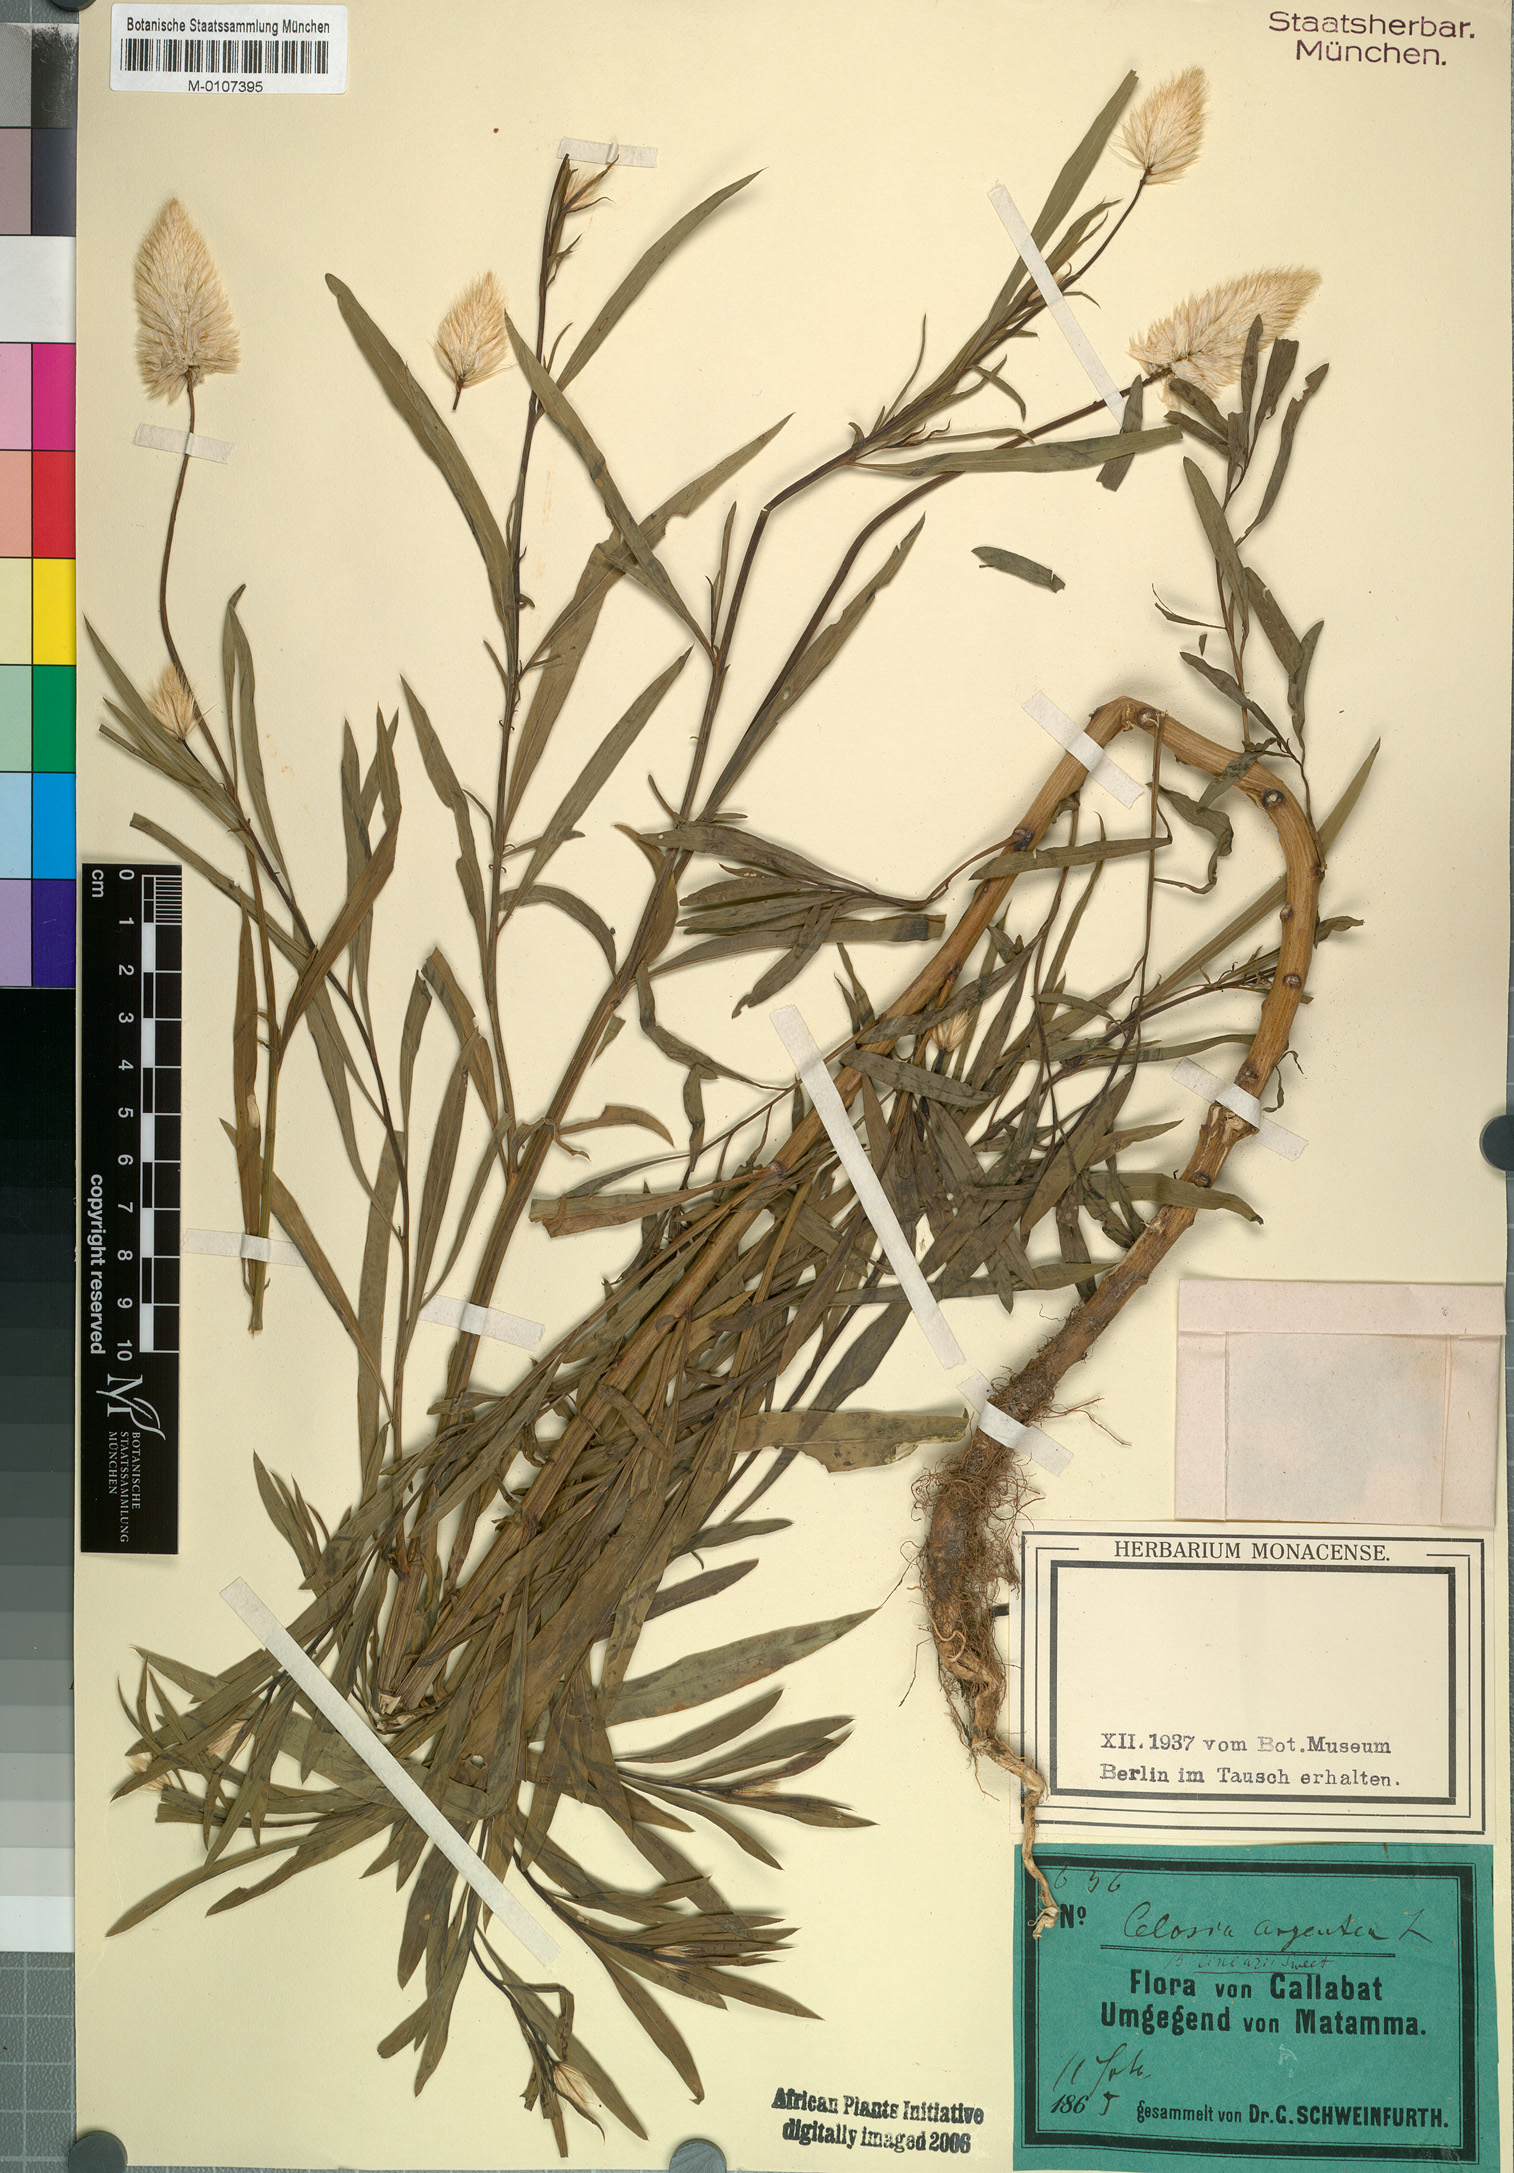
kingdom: Plantae
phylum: Tracheophyta
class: Magnoliopsida
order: Caryophyllales
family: Amaranthaceae
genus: Celosia
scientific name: Celosia argentea
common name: Feather cockscomb
